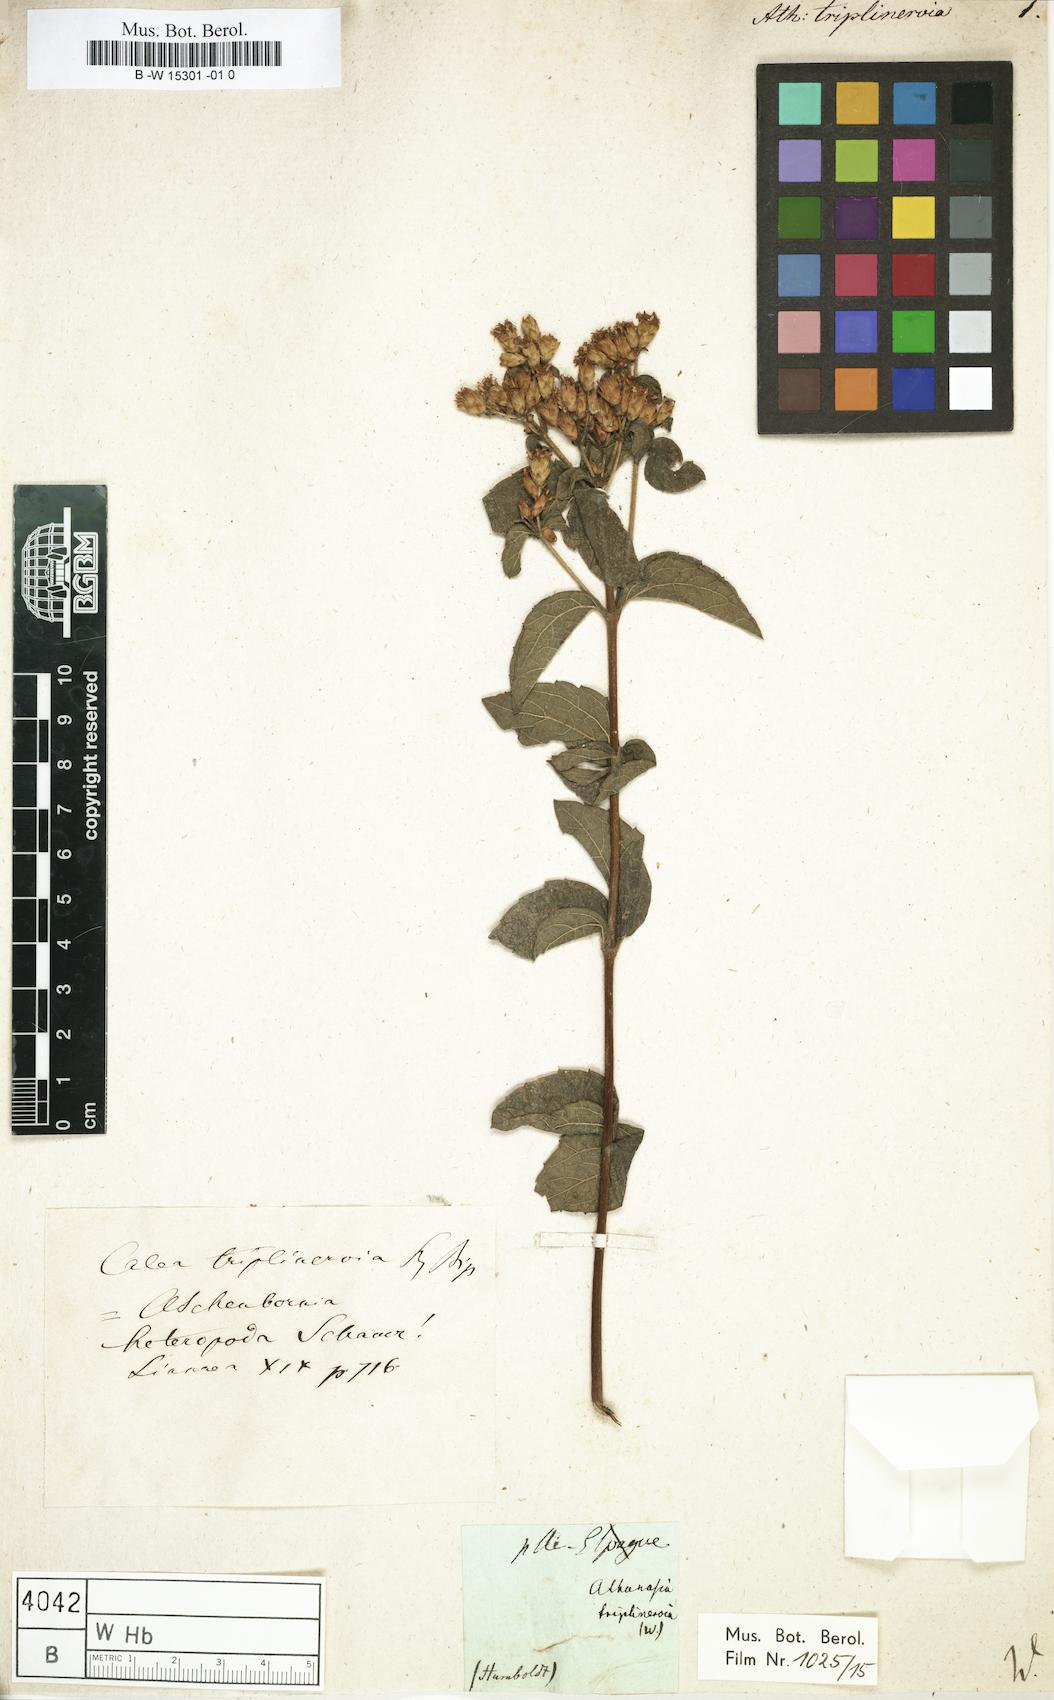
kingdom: Plantae
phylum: Tracheophyta
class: Magnoliopsida
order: Asterales
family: Asteraceae
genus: Athanasia
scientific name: Athanasia
